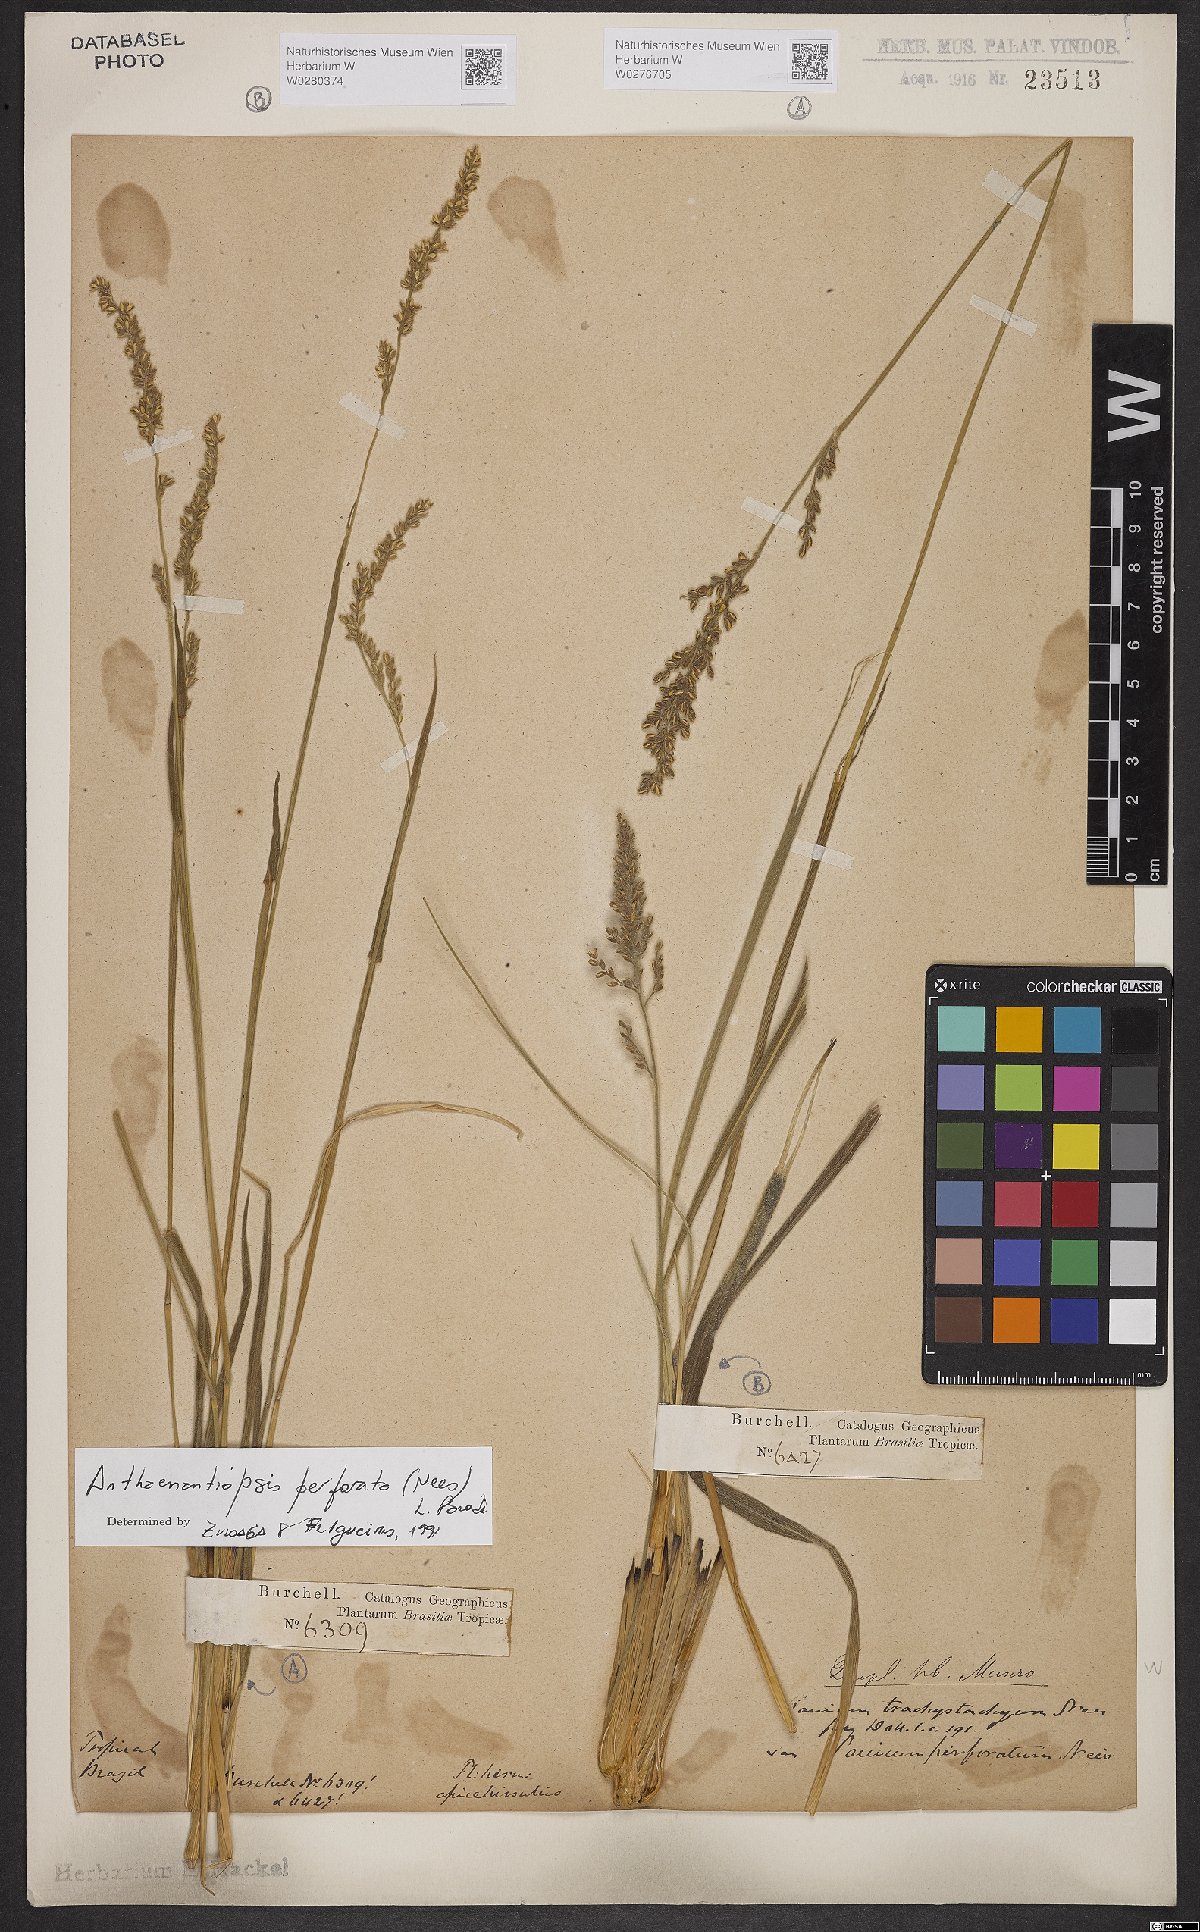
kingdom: Plantae
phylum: Tracheophyta
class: Liliopsida
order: Poales
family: Poaceae
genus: Anthaenantiopsis
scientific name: Anthaenantiopsis perforata
